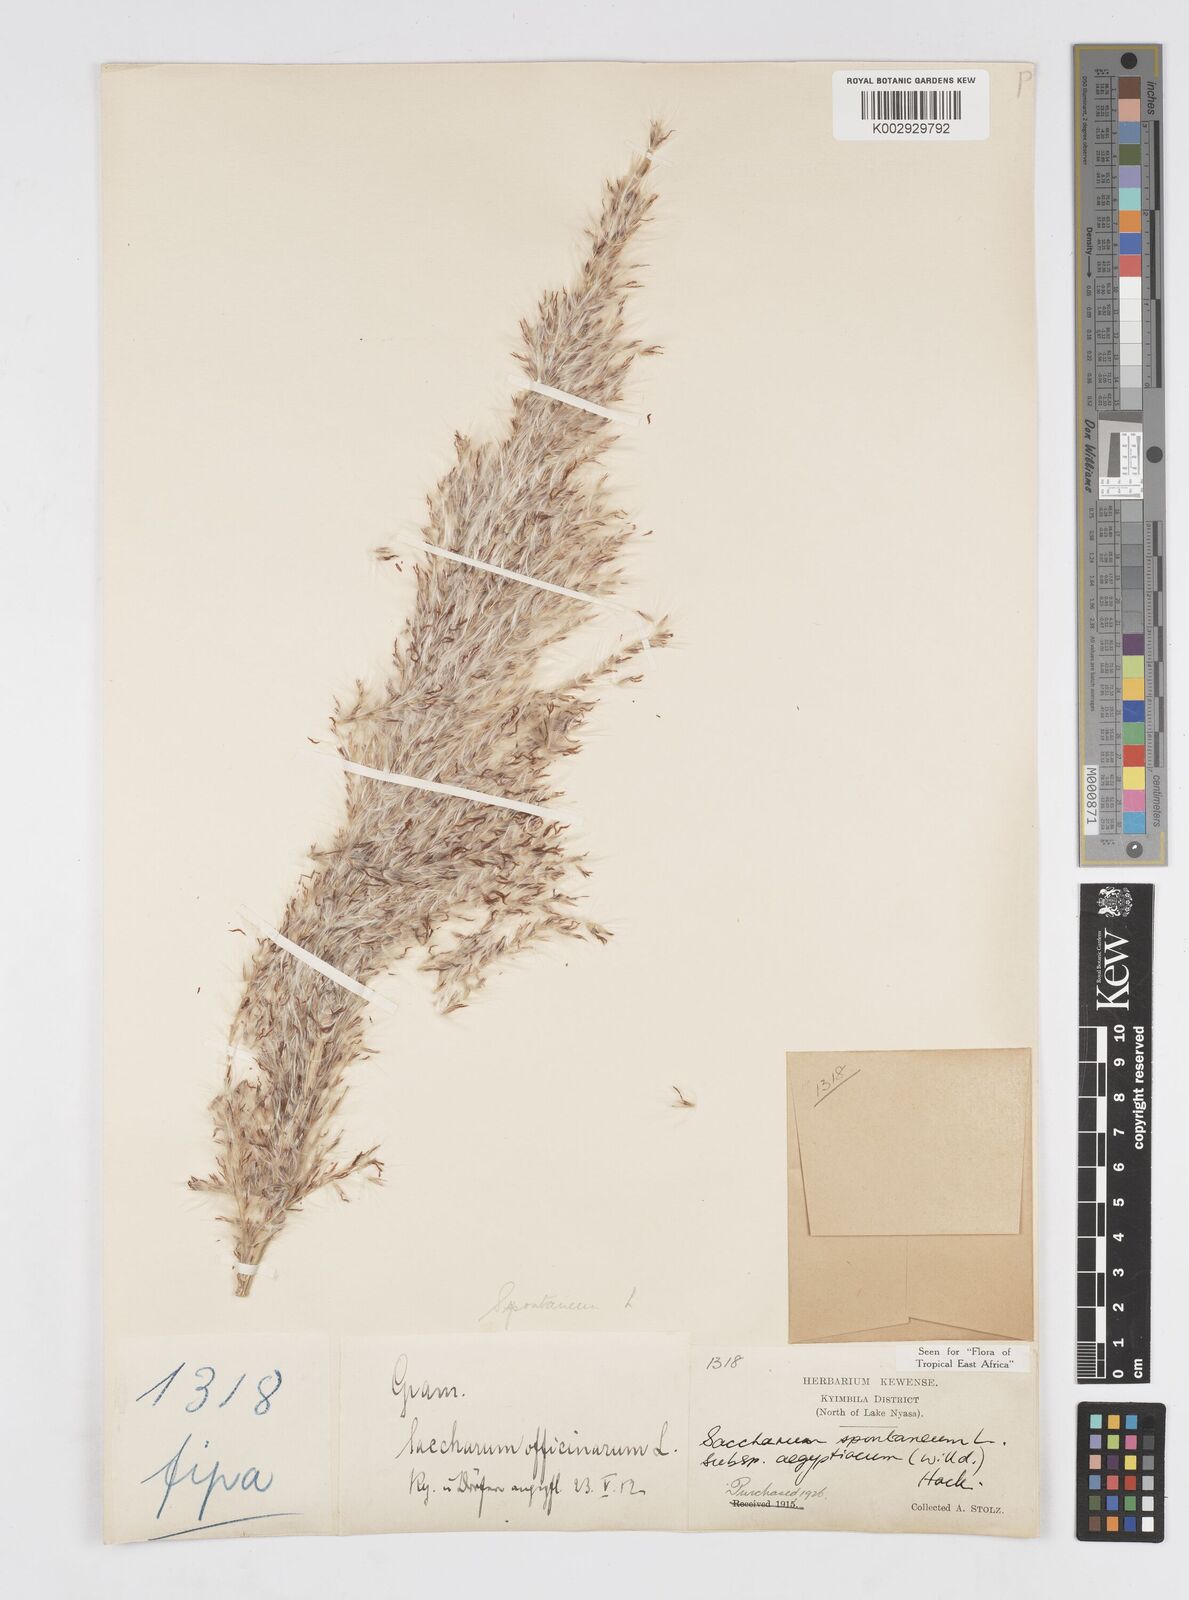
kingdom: Plantae
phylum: Tracheophyta
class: Liliopsida
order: Poales
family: Poaceae
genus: Saccharum
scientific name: Saccharum spontaneum
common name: Wild sugarcane
